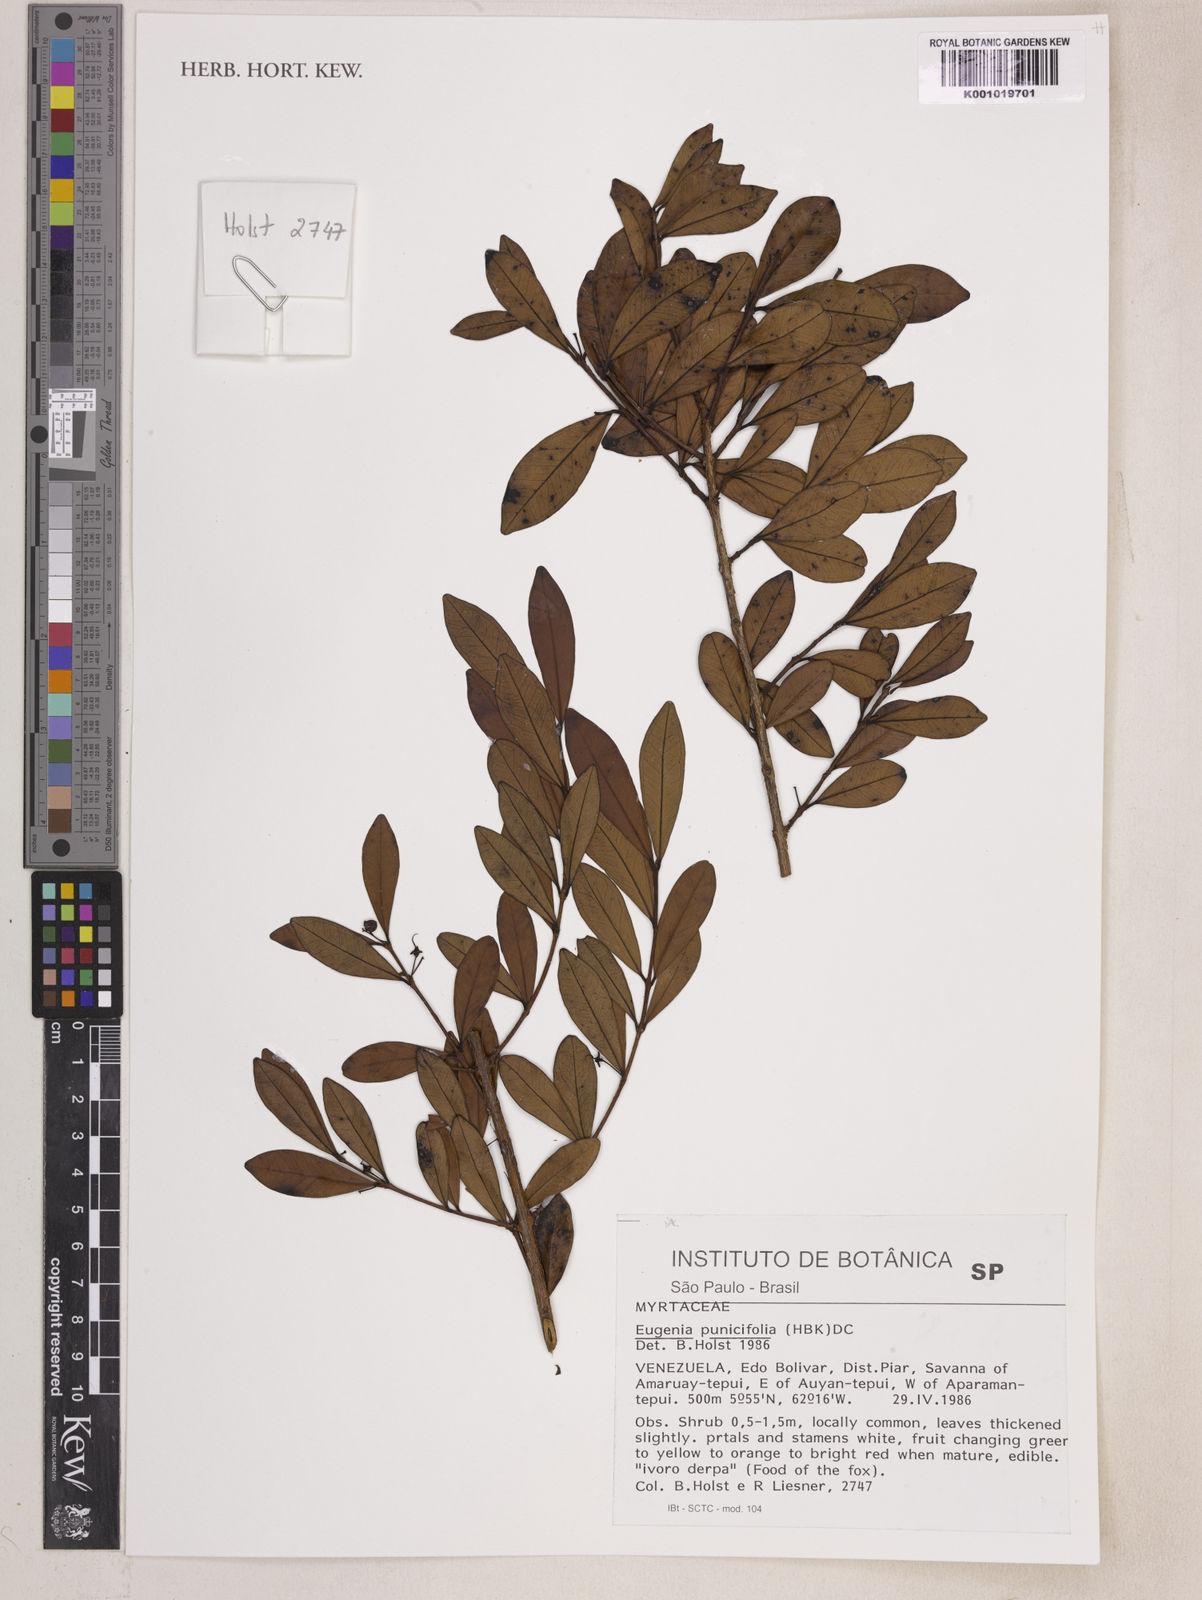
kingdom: Plantae
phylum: Tracheophyta
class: Magnoliopsida
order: Myrtales
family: Myrtaceae
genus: Eugenia
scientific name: Eugenia punicifolia
